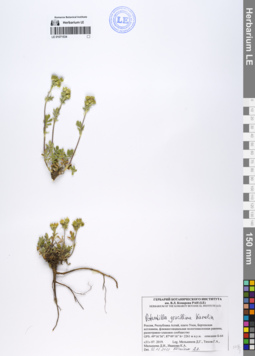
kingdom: Plantae
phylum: Tracheophyta
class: Magnoliopsida
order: Rosales
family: Rosaceae
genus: Potentilla
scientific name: Potentilla gracillima
